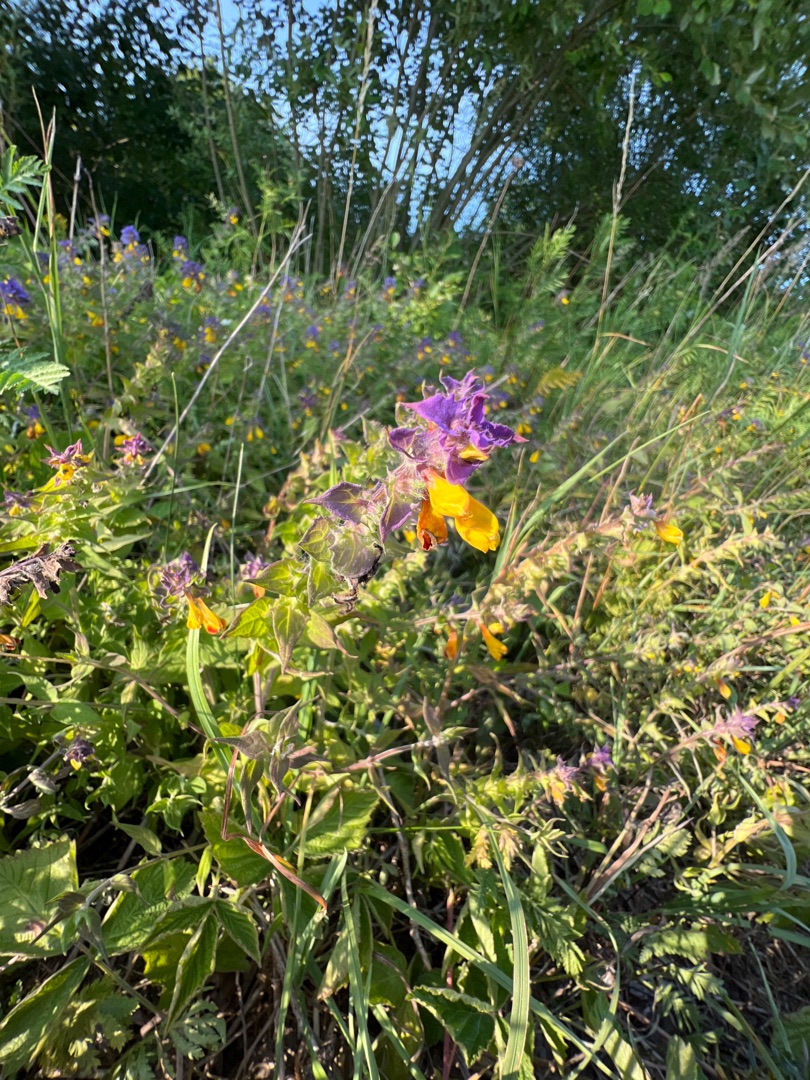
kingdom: Plantae
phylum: Tracheophyta
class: Magnoliopsida
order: Lamiales
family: Orobanchaceae
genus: Melampyrum
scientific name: Melampyrum nemorosum
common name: Blåtoppet kohvede
